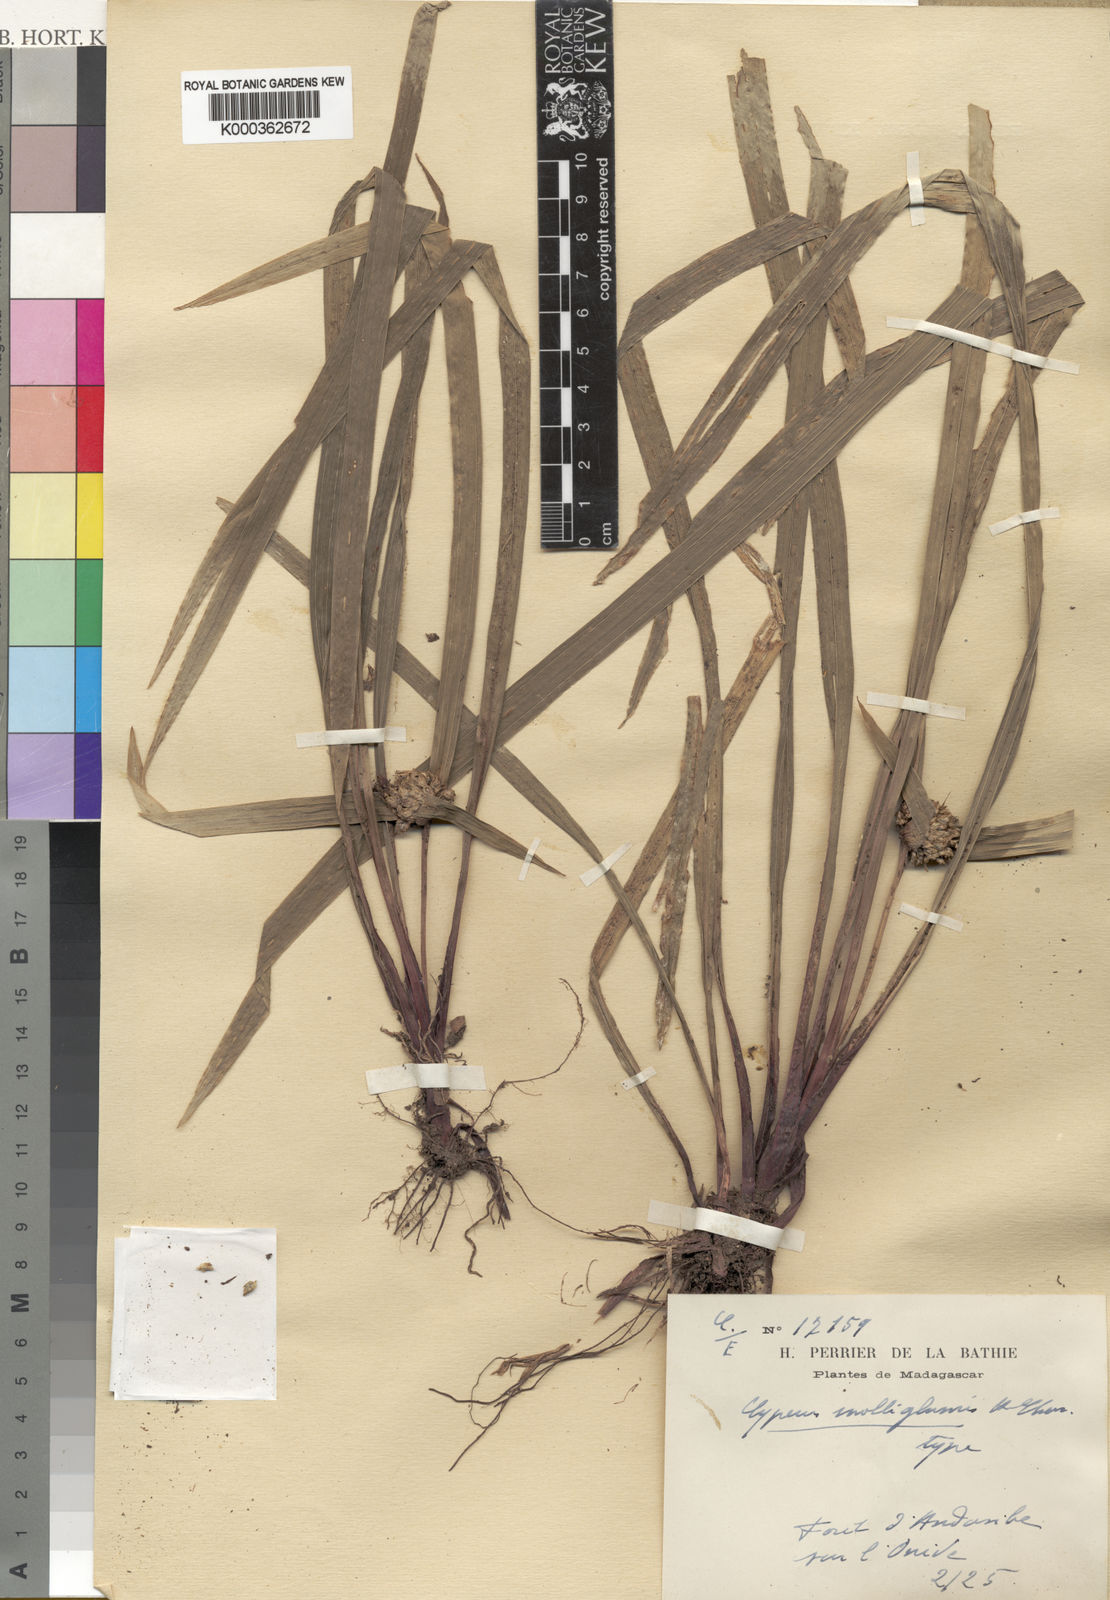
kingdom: Plantae
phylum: Tracheophyta
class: Liliopsida
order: Poales
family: Cyperaceae
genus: Cyperus
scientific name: Cyperus molliglumis
